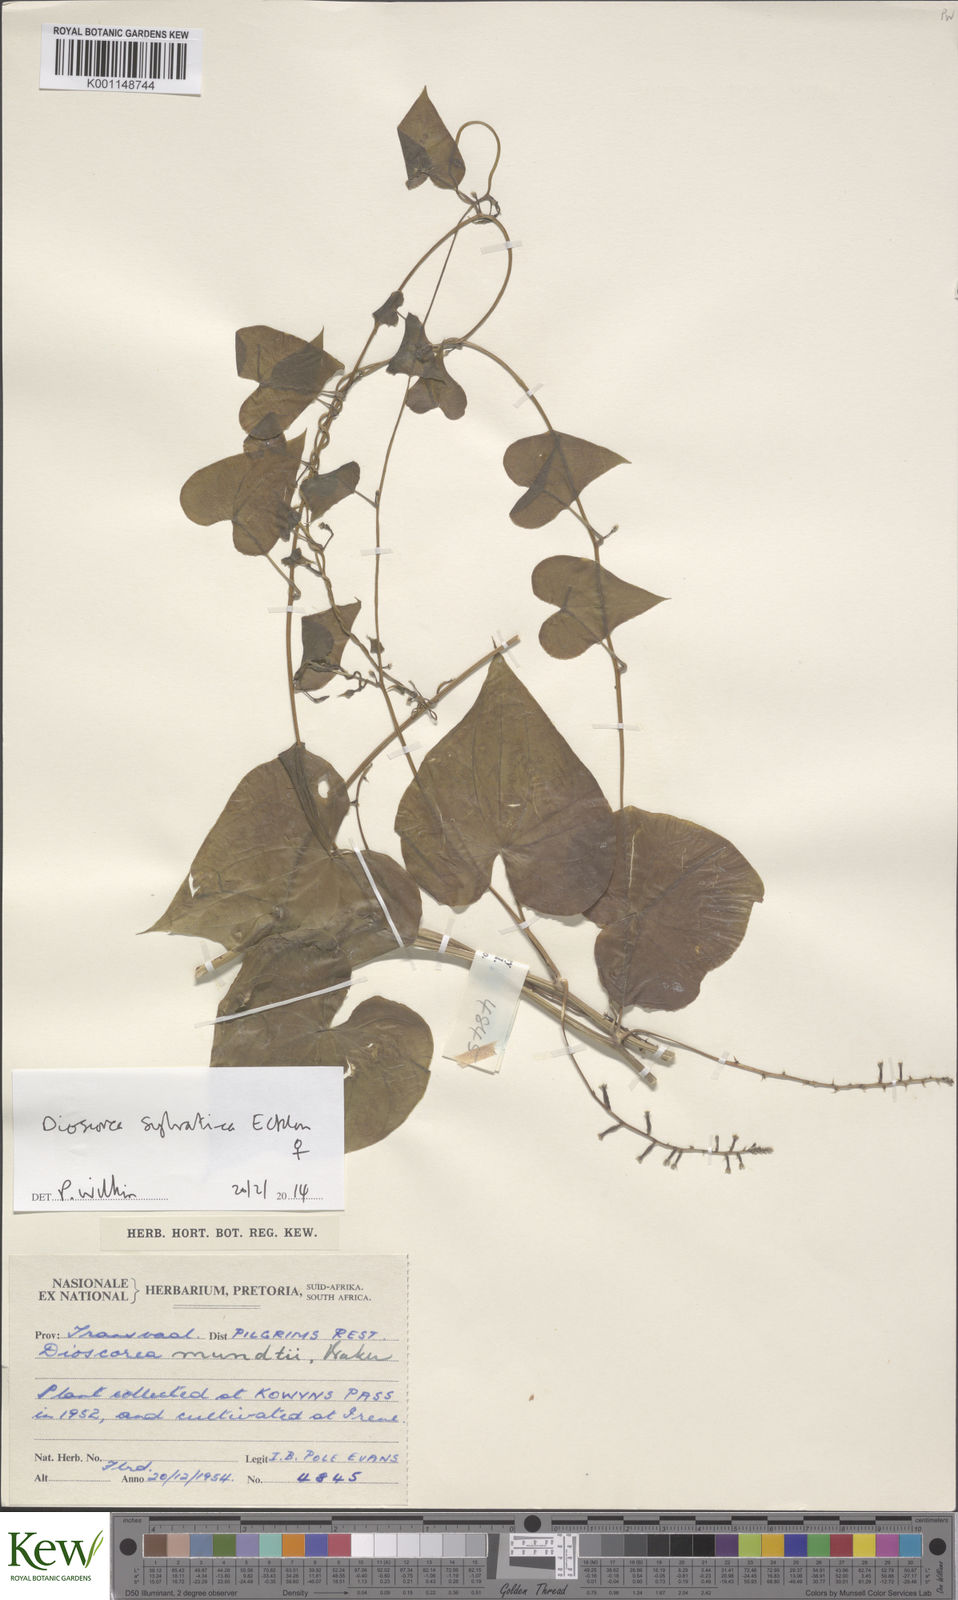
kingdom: Plantae
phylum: Tracheophyta
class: Liliopsida
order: Dioscoreales
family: Dioscoreaceae
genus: Dioscorea
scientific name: Dioscorea sylvatica
